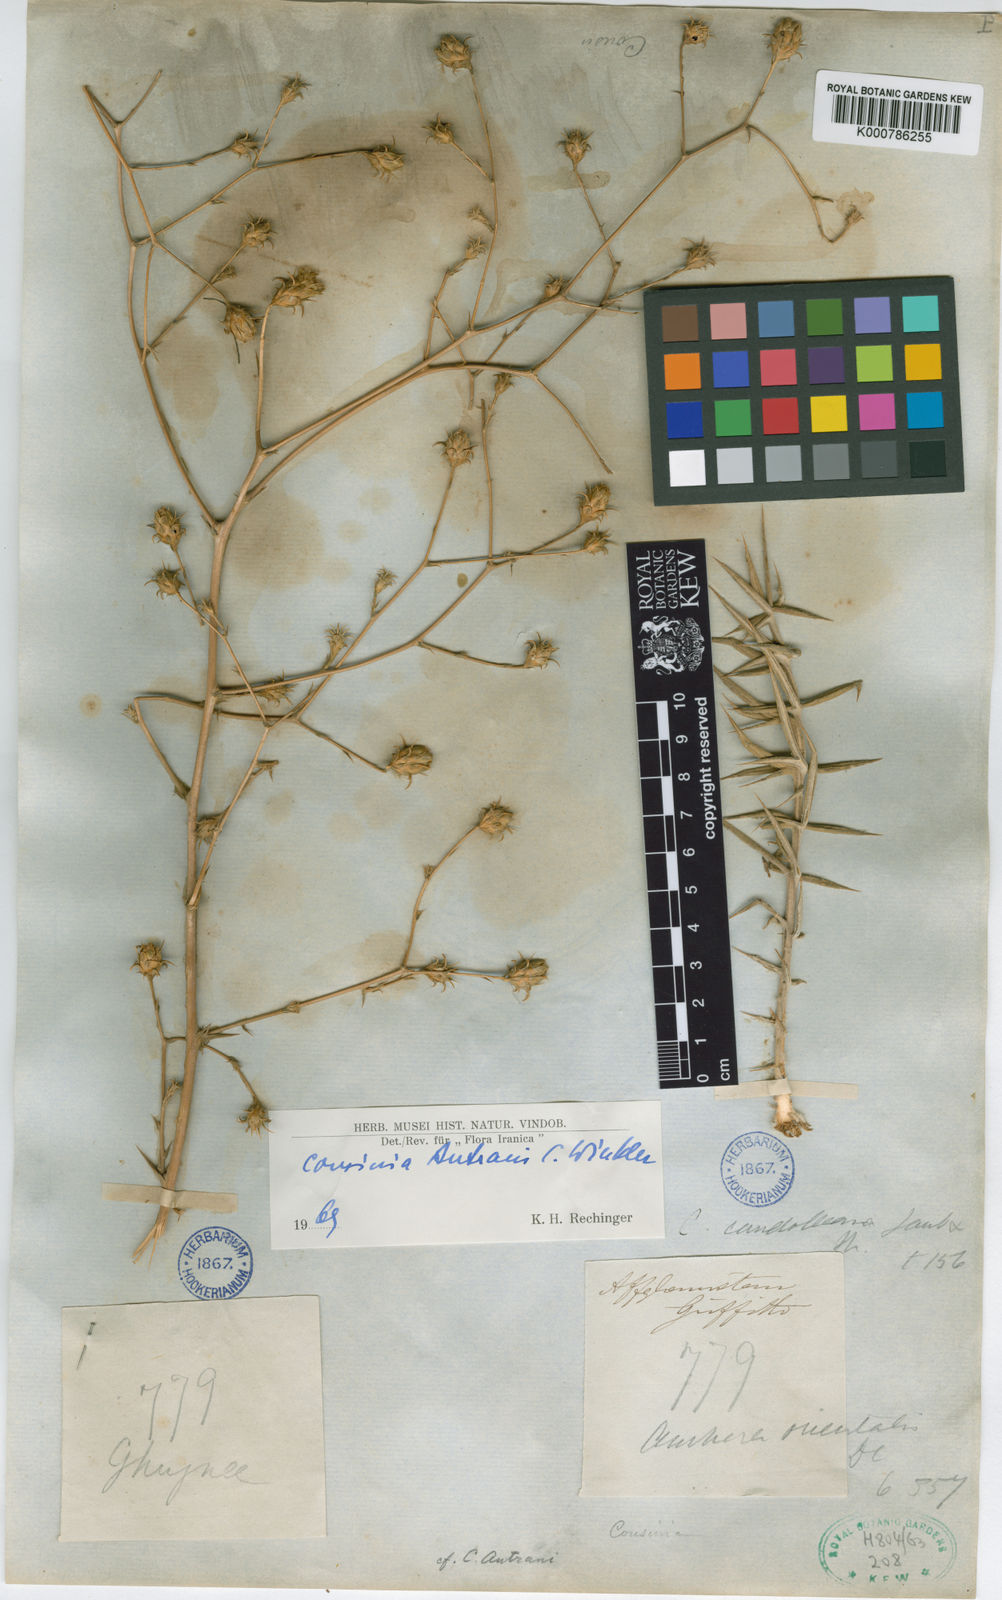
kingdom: Plantae
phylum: Tracheophyta
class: Magnoliopsida
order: Asterales
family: Asteraceae
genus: Cousinia
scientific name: Cousinia autranii
